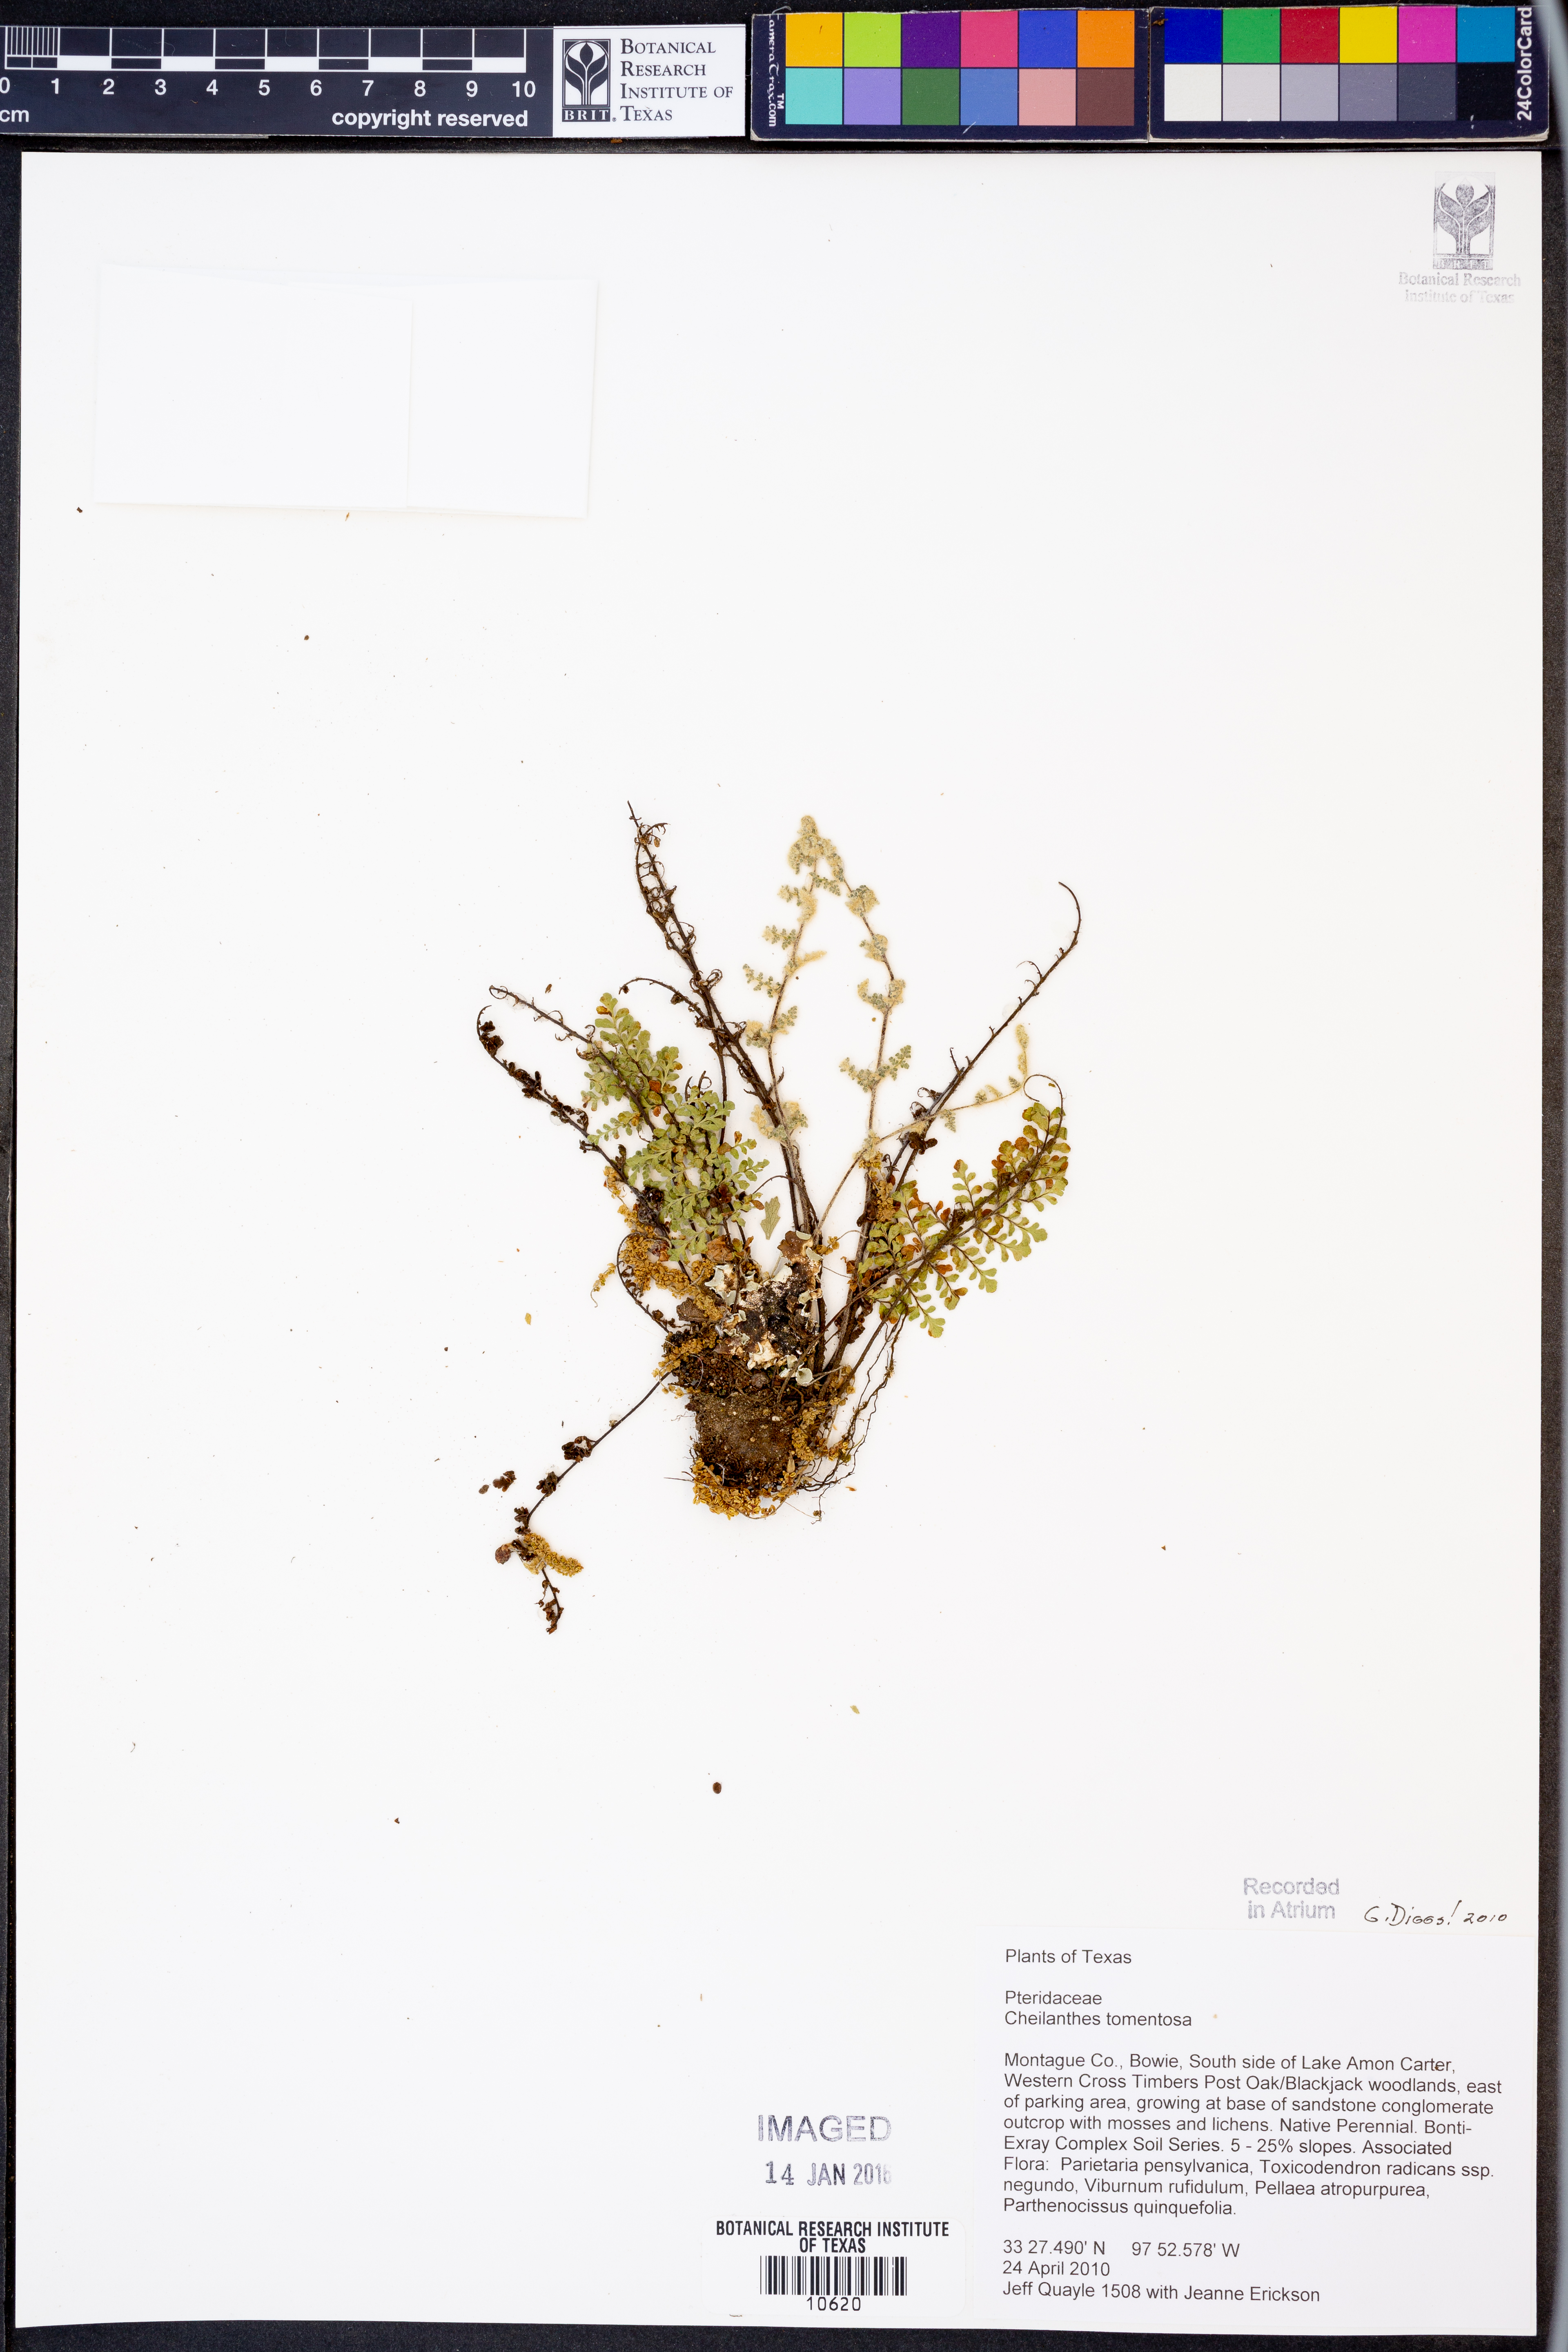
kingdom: Plantae
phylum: Tracheophyta
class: Polypodiopsida
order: Polypodiales
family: Pteridaceae
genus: Myriopteris
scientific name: Myriopteris tomentosa
